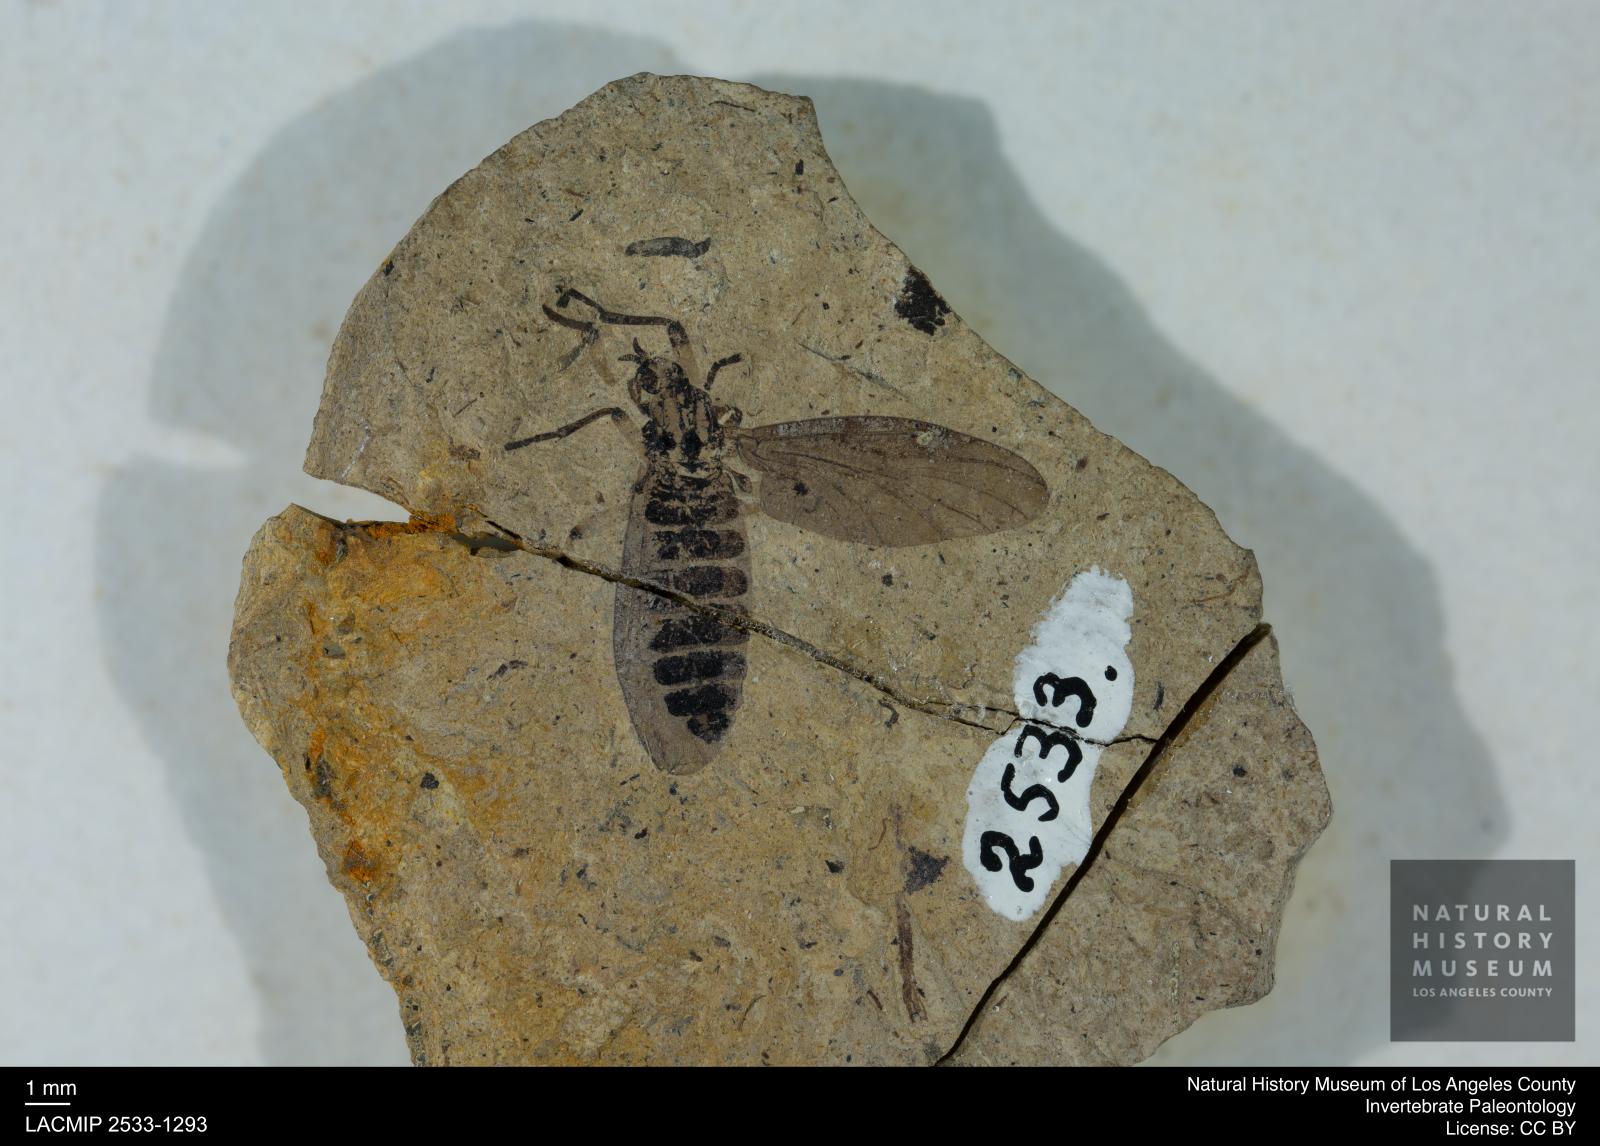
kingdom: Animalia
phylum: Arthropoda
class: Insecta
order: Diptera
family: Bibionidae
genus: Plecia
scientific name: Plecia luctuosa
